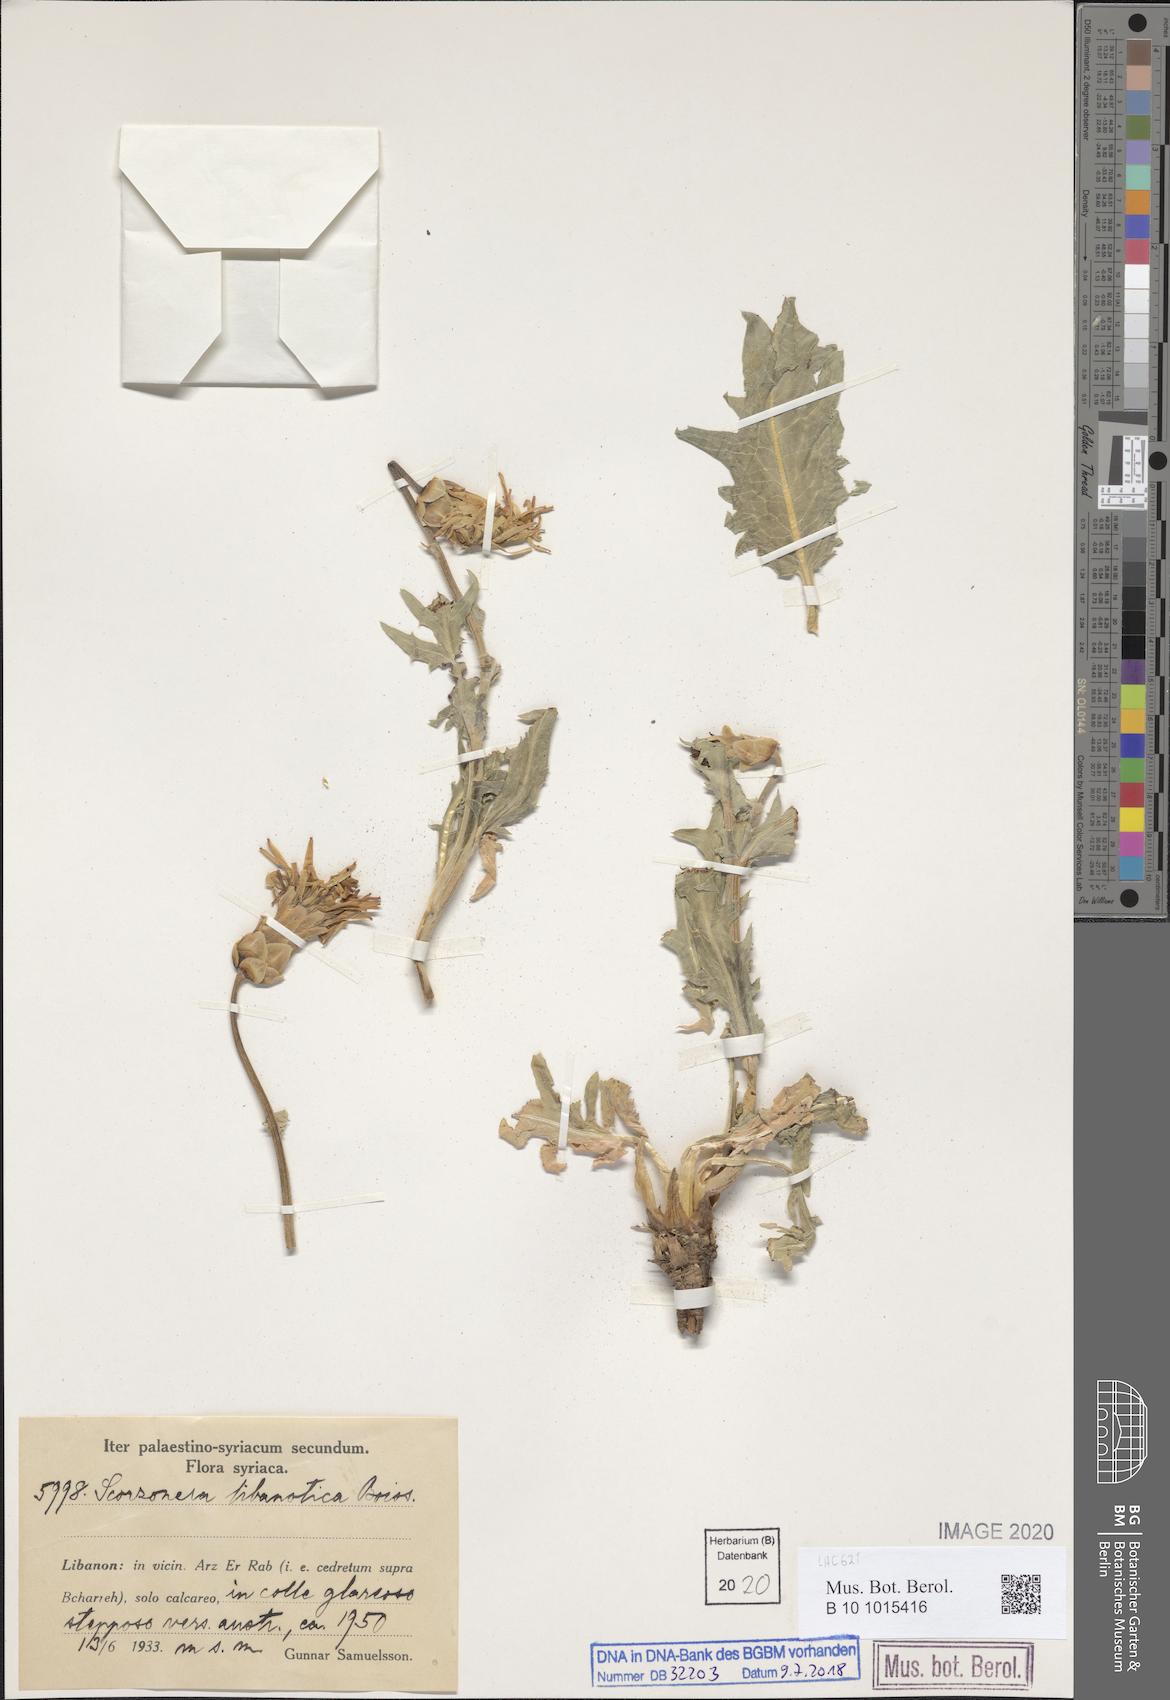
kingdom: Plantae
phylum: Tracheophyta
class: Magnoliopsida
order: Asterales
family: Asteraceae
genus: Aslia
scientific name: Aslia libanotica
